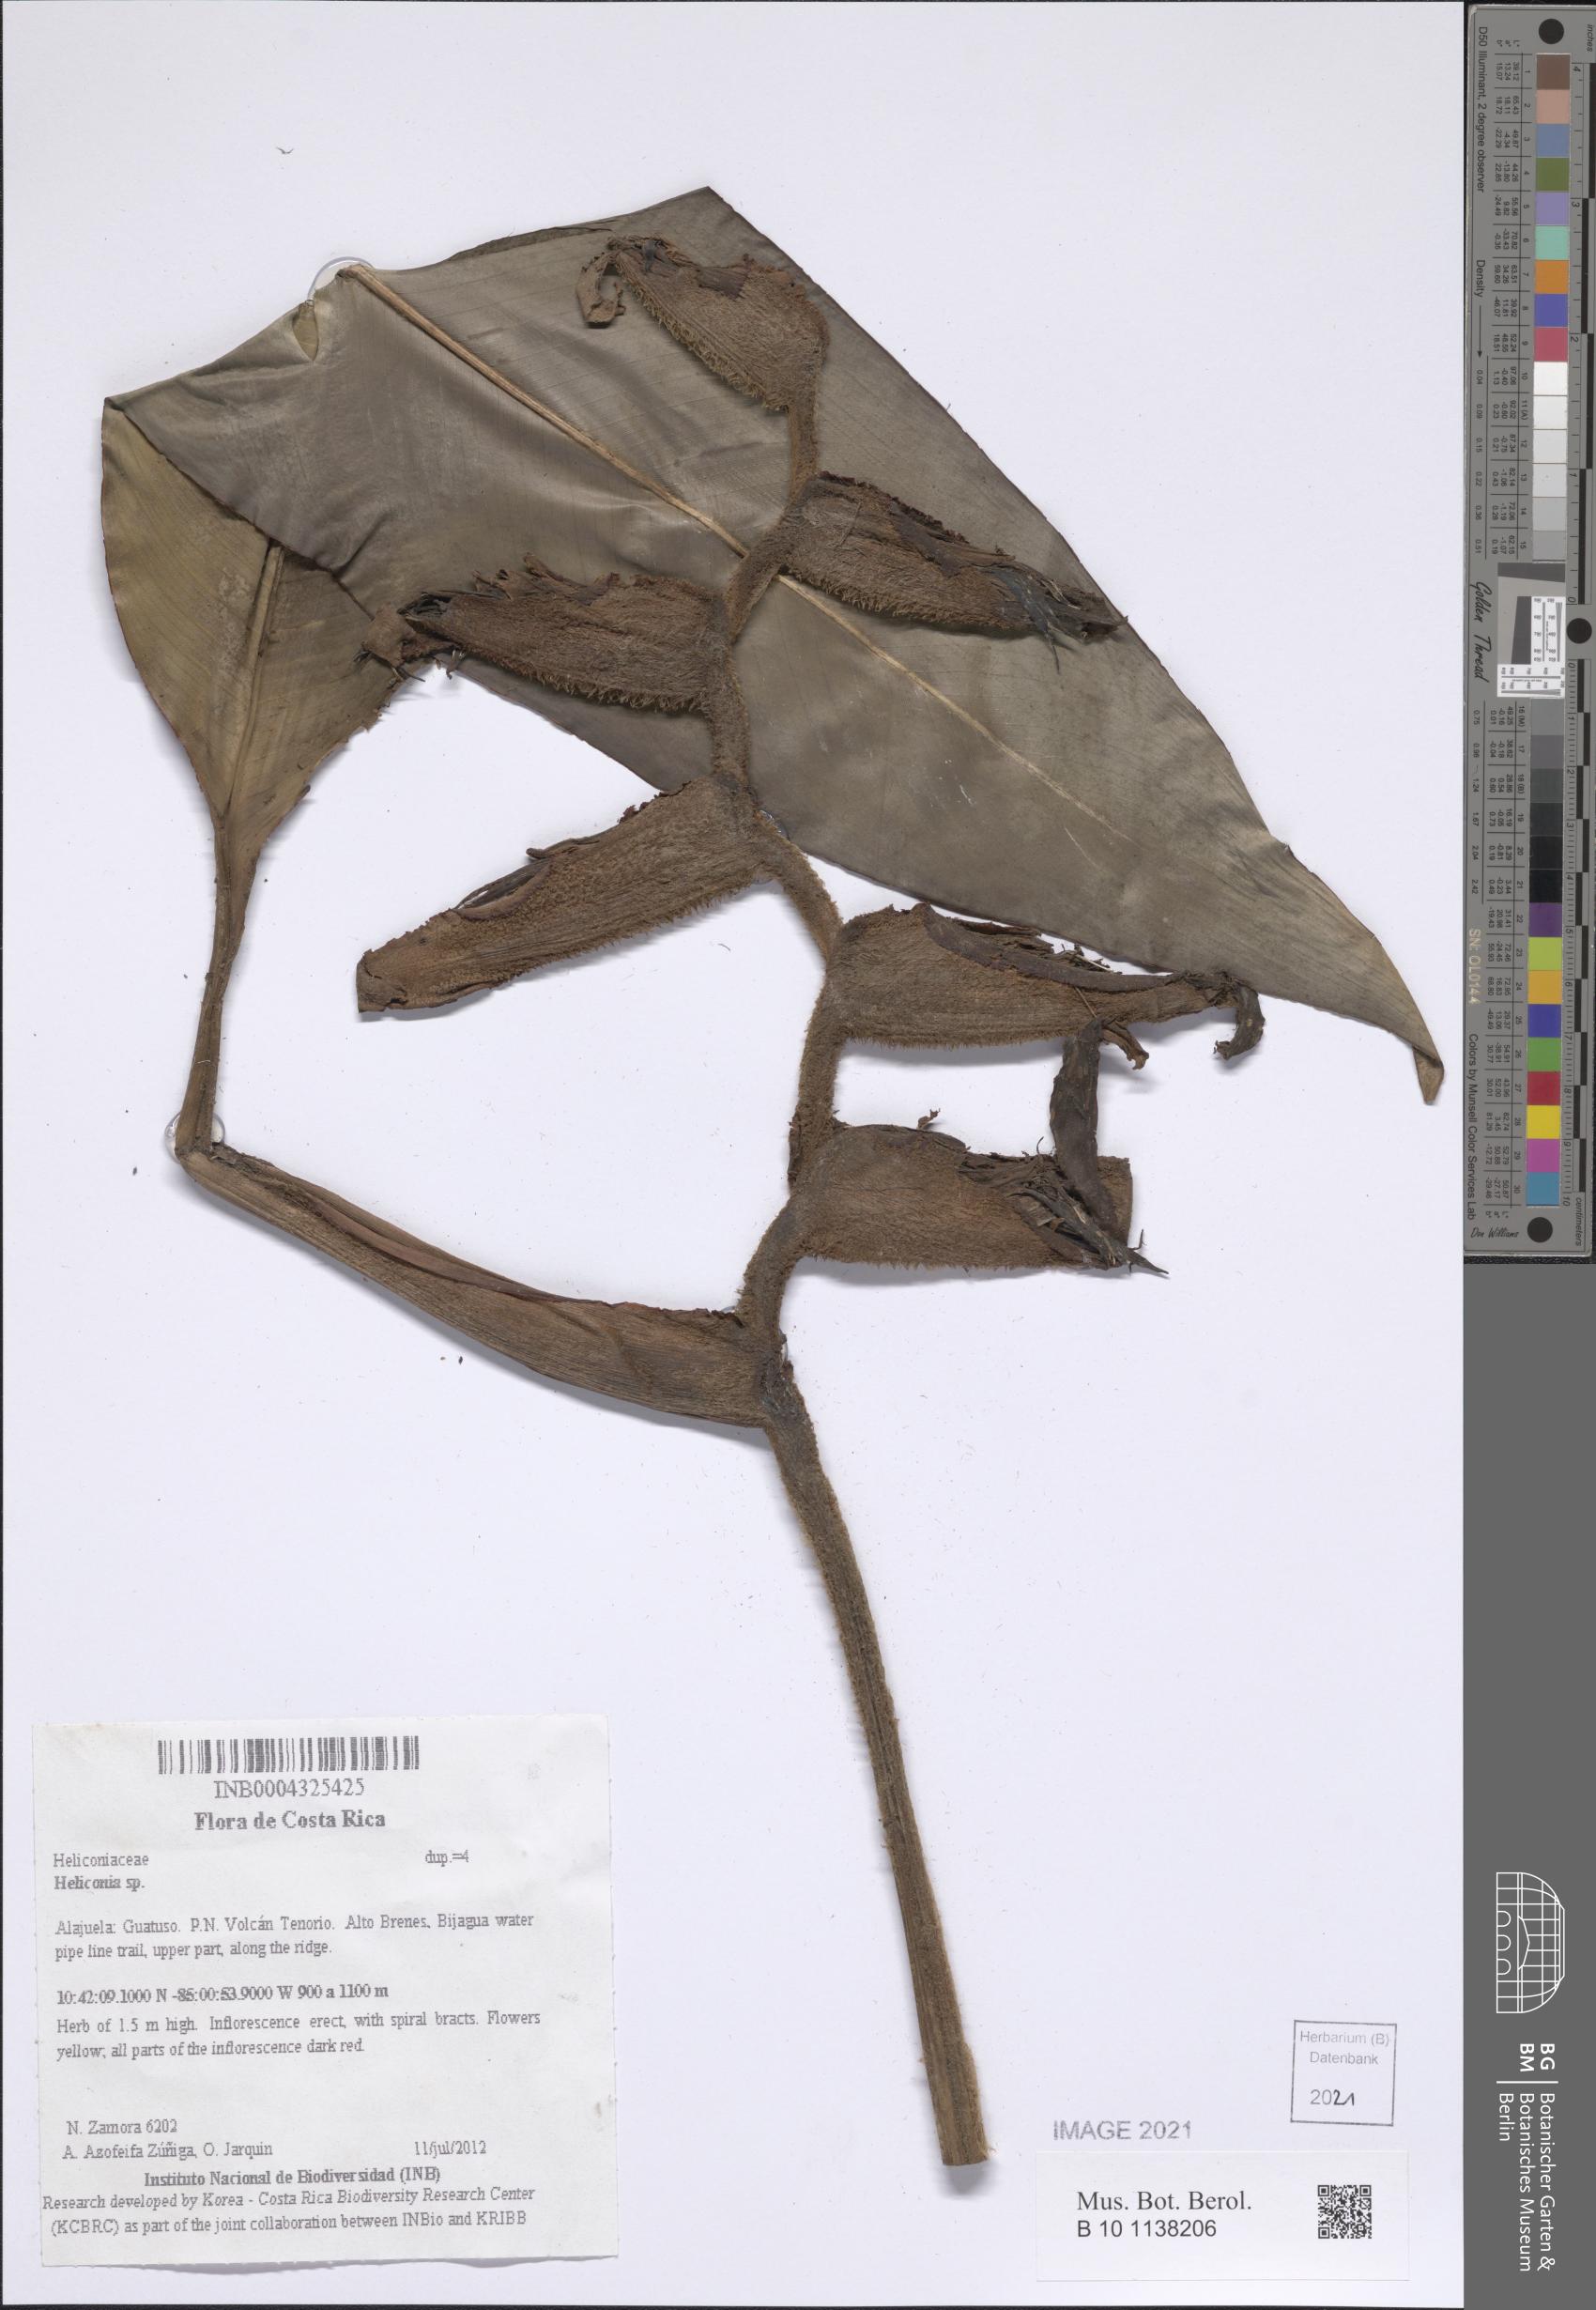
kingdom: Plantae
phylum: Tracheophyta
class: Liliopsida
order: Zingiberales
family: Heliconiaceae
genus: Heliconia
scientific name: Heliconia
